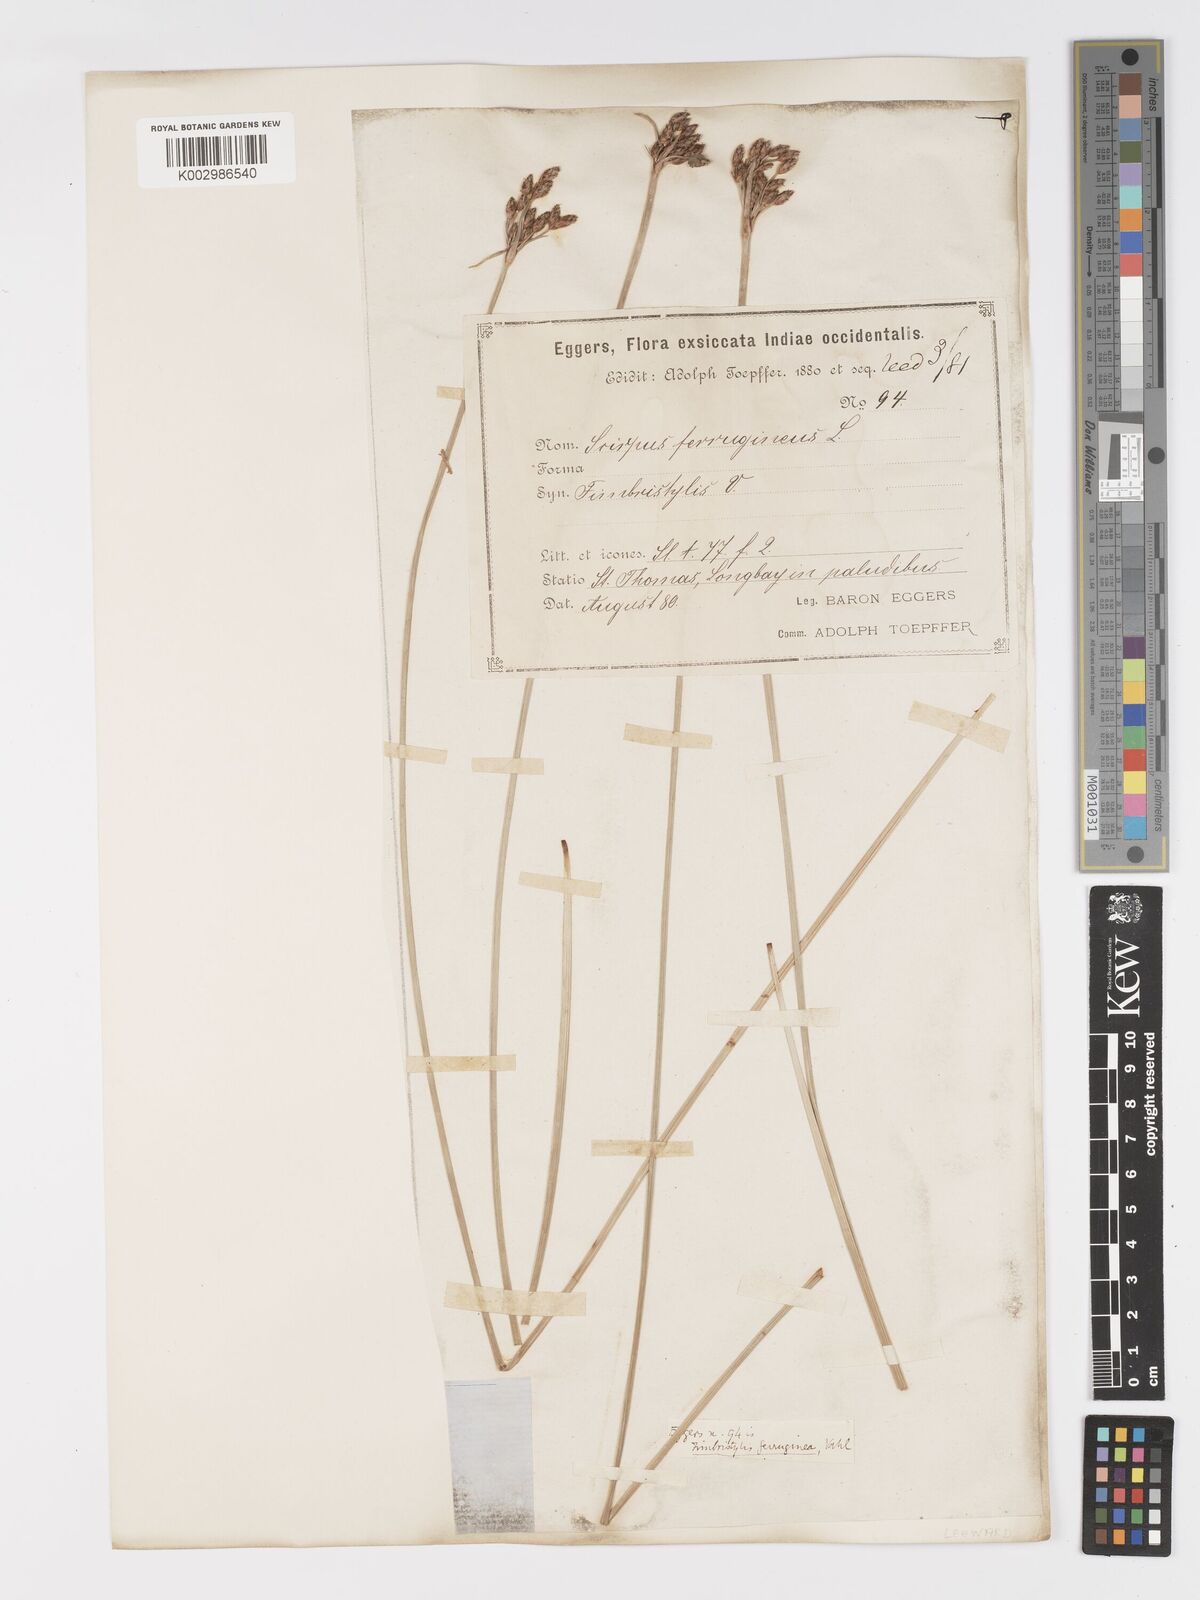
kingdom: Plantae
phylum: Tracheophyta
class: Liliopsida
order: Poales
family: Cyperaceae
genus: Fimbristylis
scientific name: Fimbristylis ferruginea
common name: West indian fimbry
